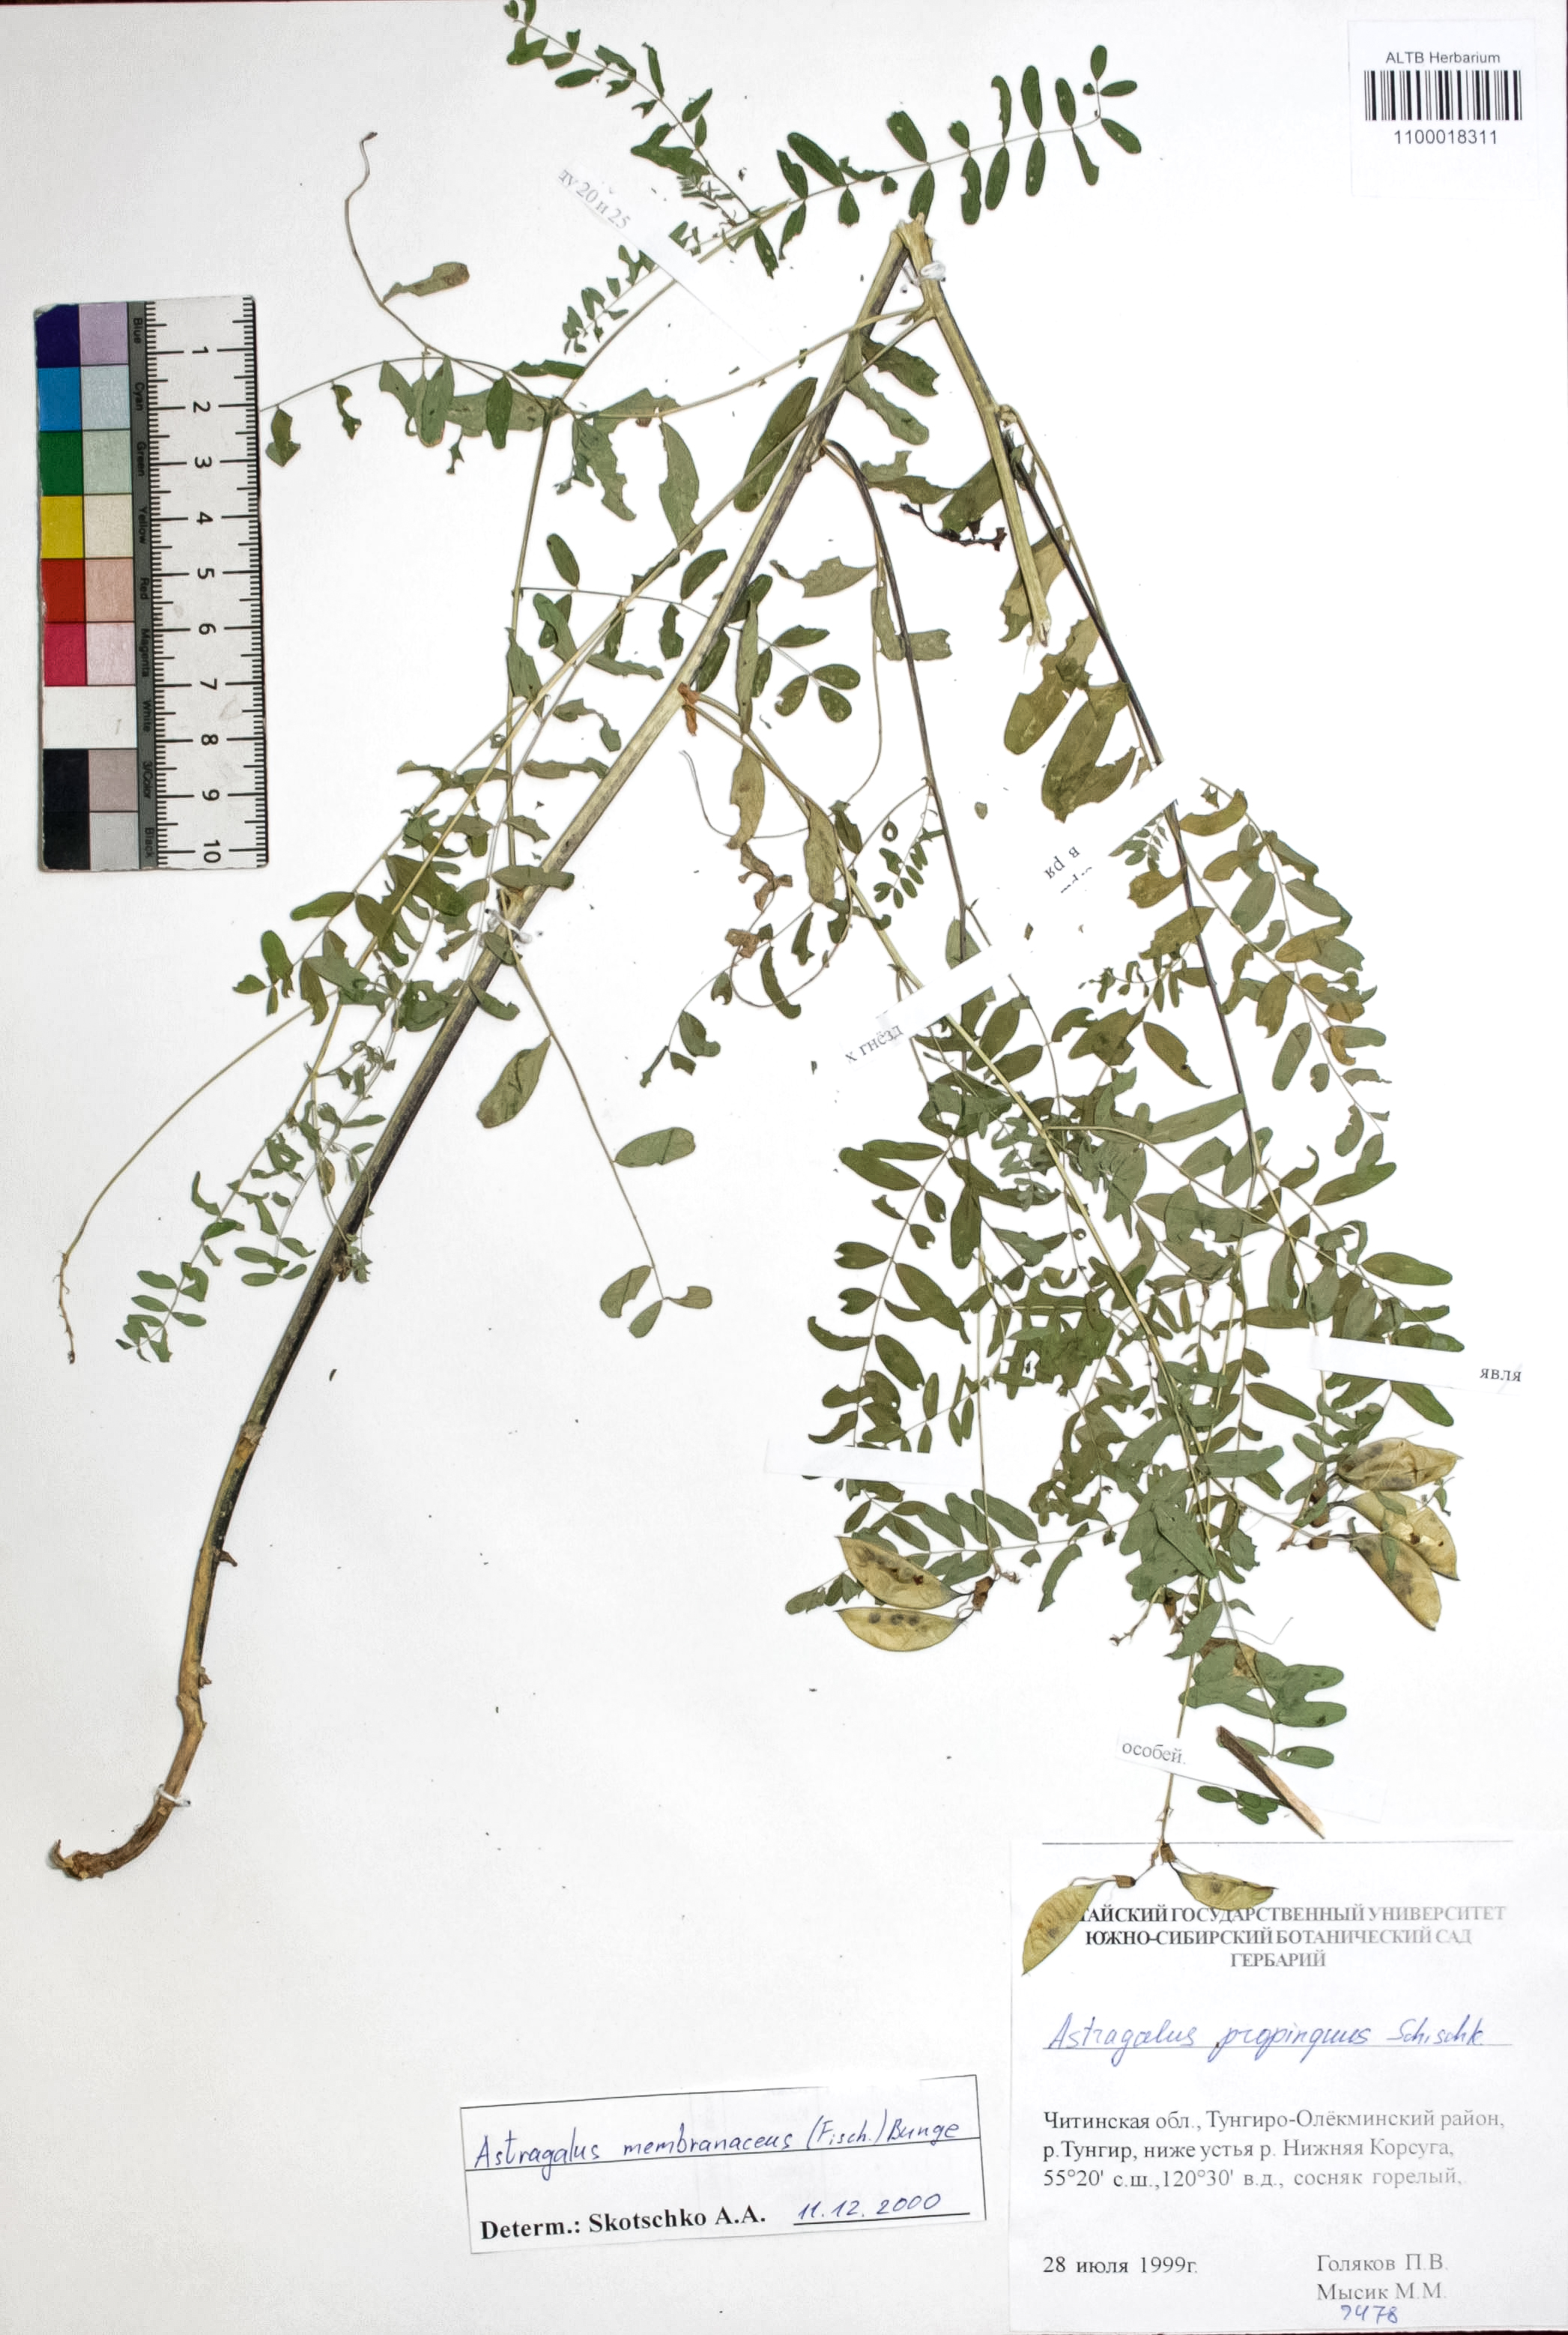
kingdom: Plantae
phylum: Tracheophyta
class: Magnoliopsida
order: Fabales
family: Fabaceae
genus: Astragalus
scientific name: Astragalus mongholicus
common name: Membranous milk-vetch
